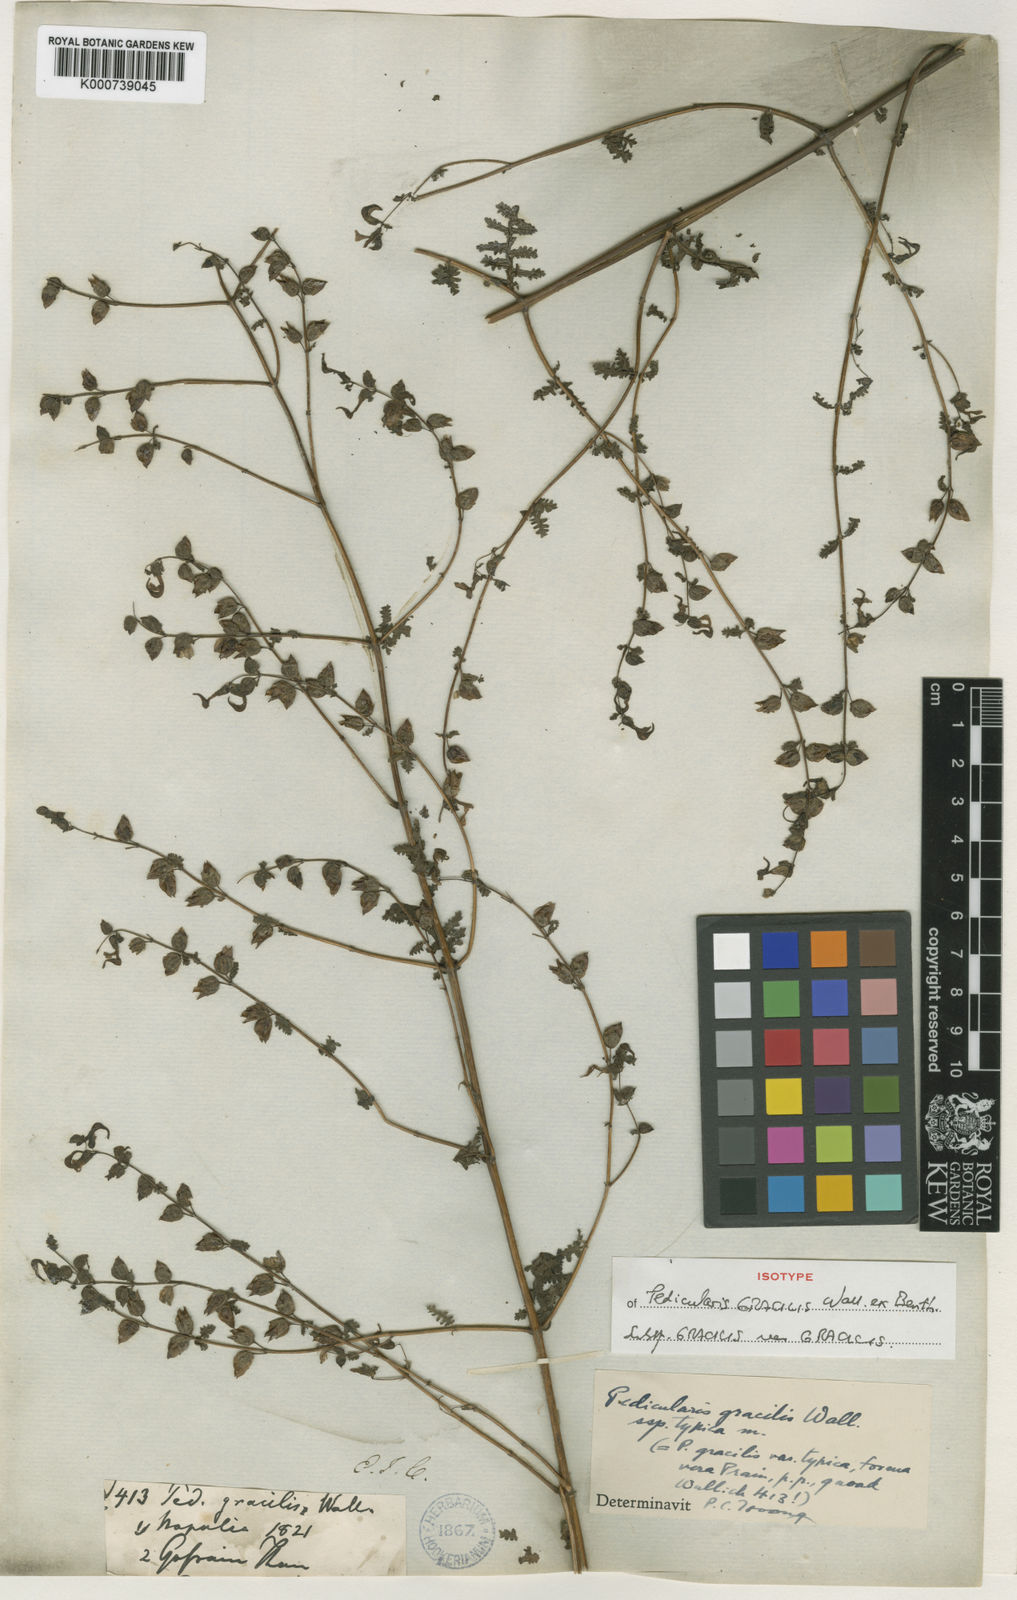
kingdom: Plantae
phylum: Tracheophyta
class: Magnoliopsida
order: Lamiales
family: Orobanchaceae
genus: Pedicularis
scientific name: Pedicularis gracilis
